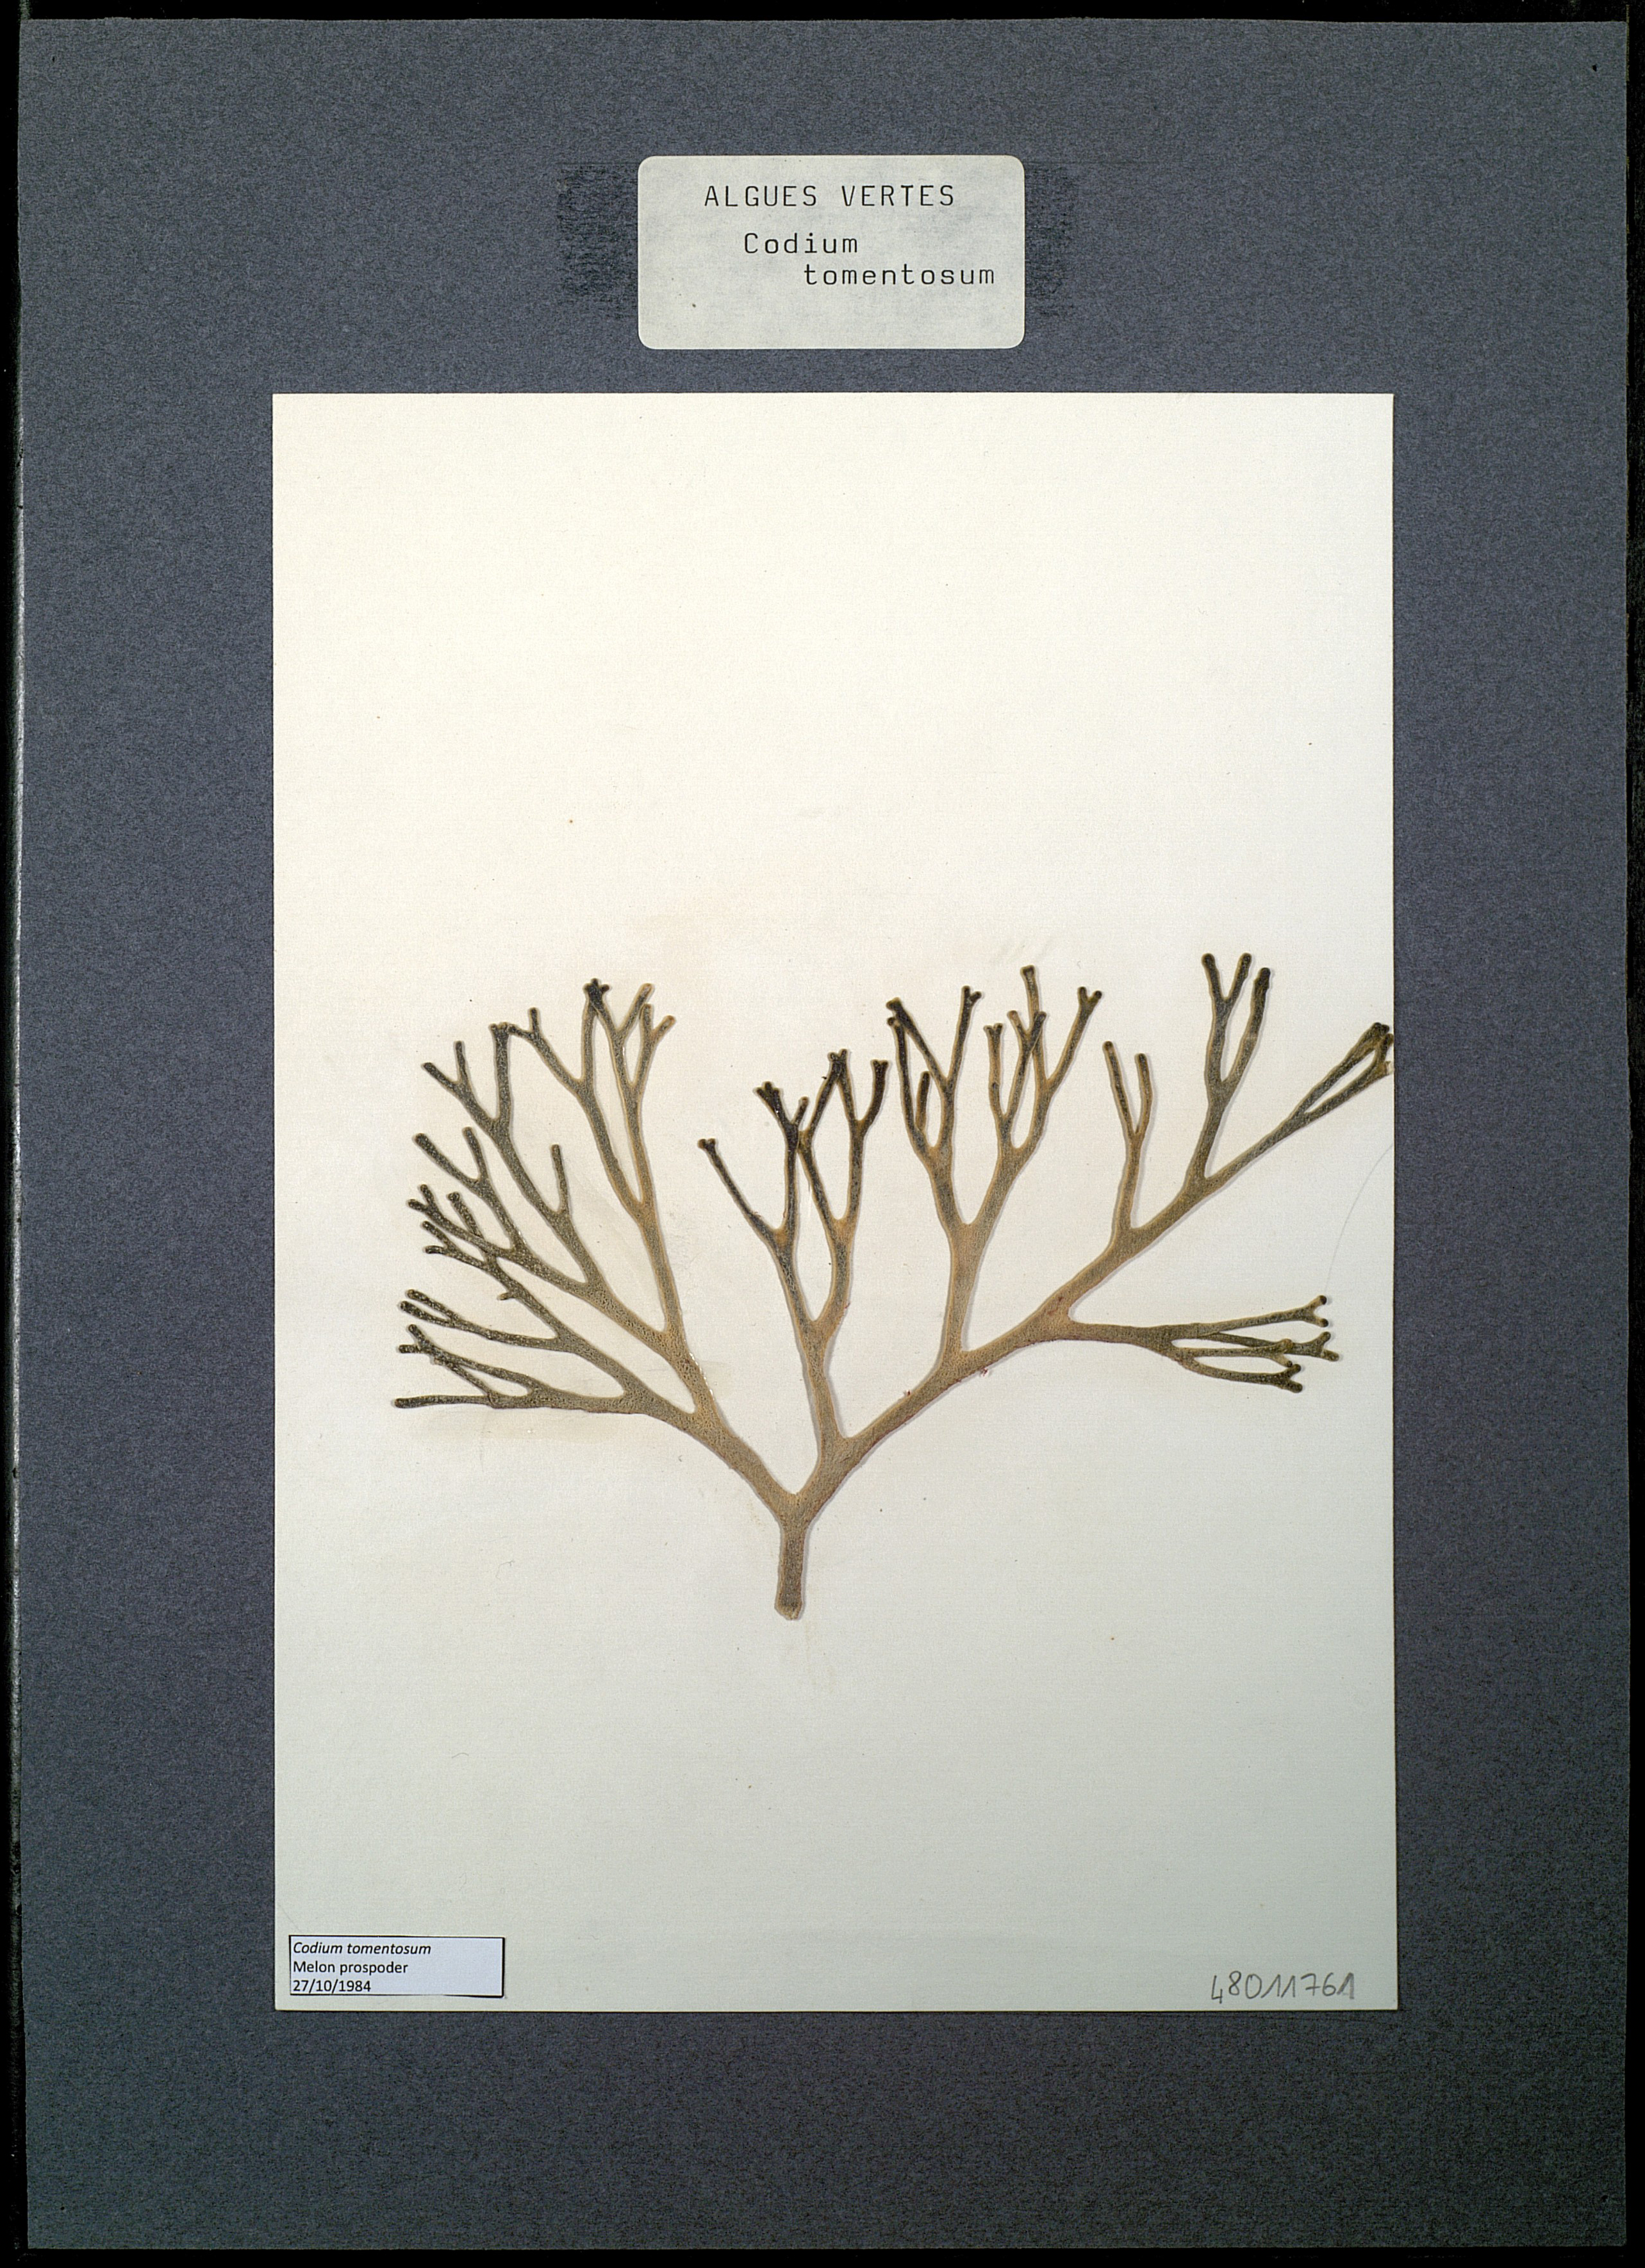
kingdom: Plantae
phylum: Chlorophyta
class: Ulvophyceae
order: Bryopsidales
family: Codiaceae
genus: Codium
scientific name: Codium tomentosum
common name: Velvet horn
